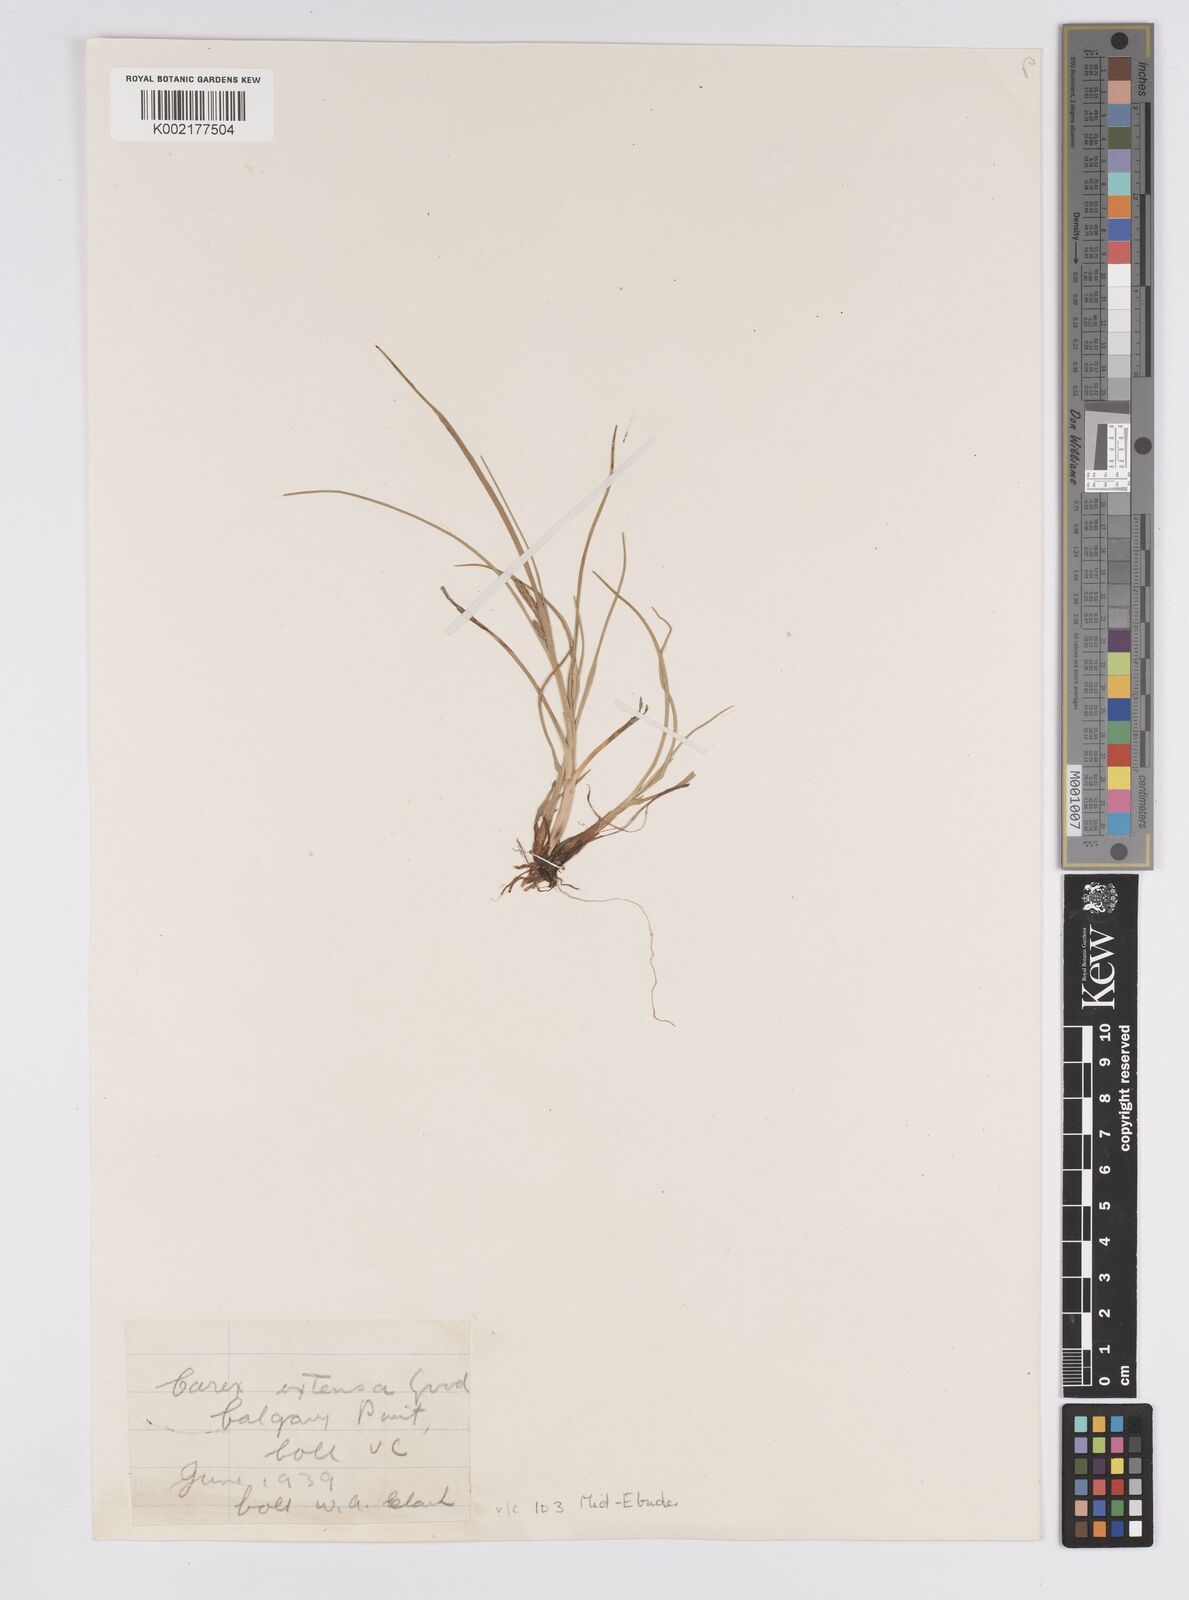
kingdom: Plantae
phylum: Tracheophyta
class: Liliopsida
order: Poales
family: Cyperaceae
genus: Carex
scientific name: Carex extensa
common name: Long-bracted sedge
